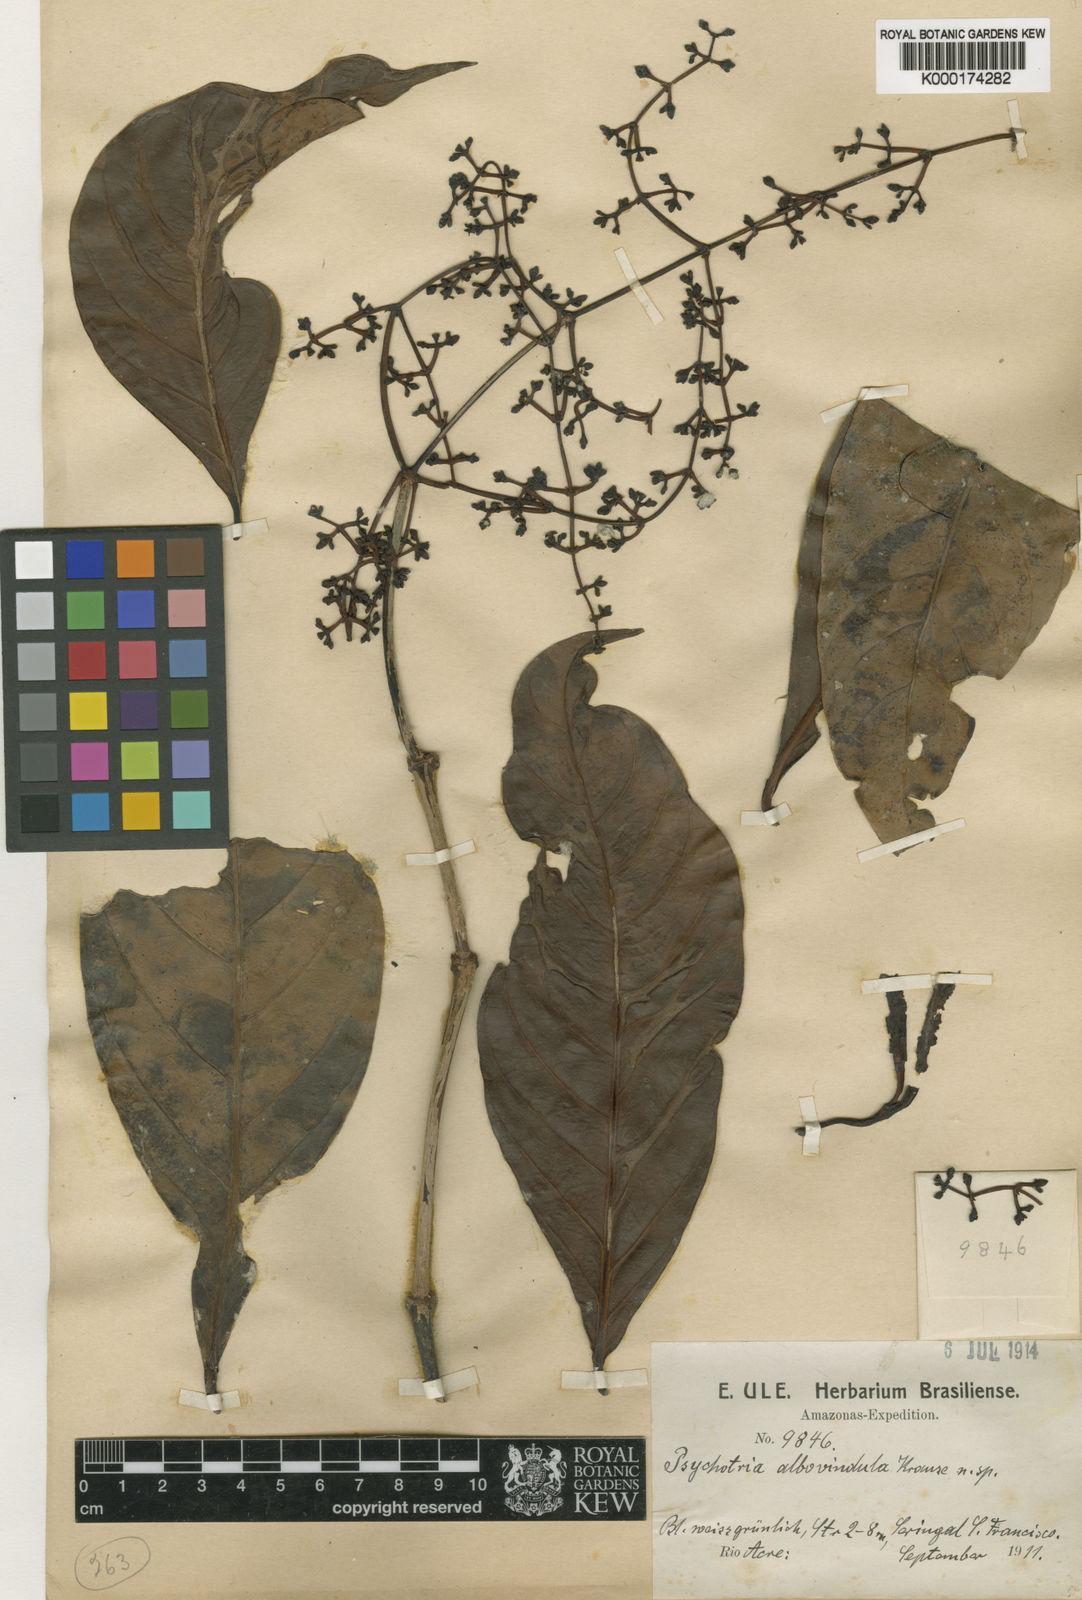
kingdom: Plantae
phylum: Tracheophyta
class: Magnoliopsida
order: Gentianales
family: Rubiaceae
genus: Psychotria
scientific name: Psychotria remota
